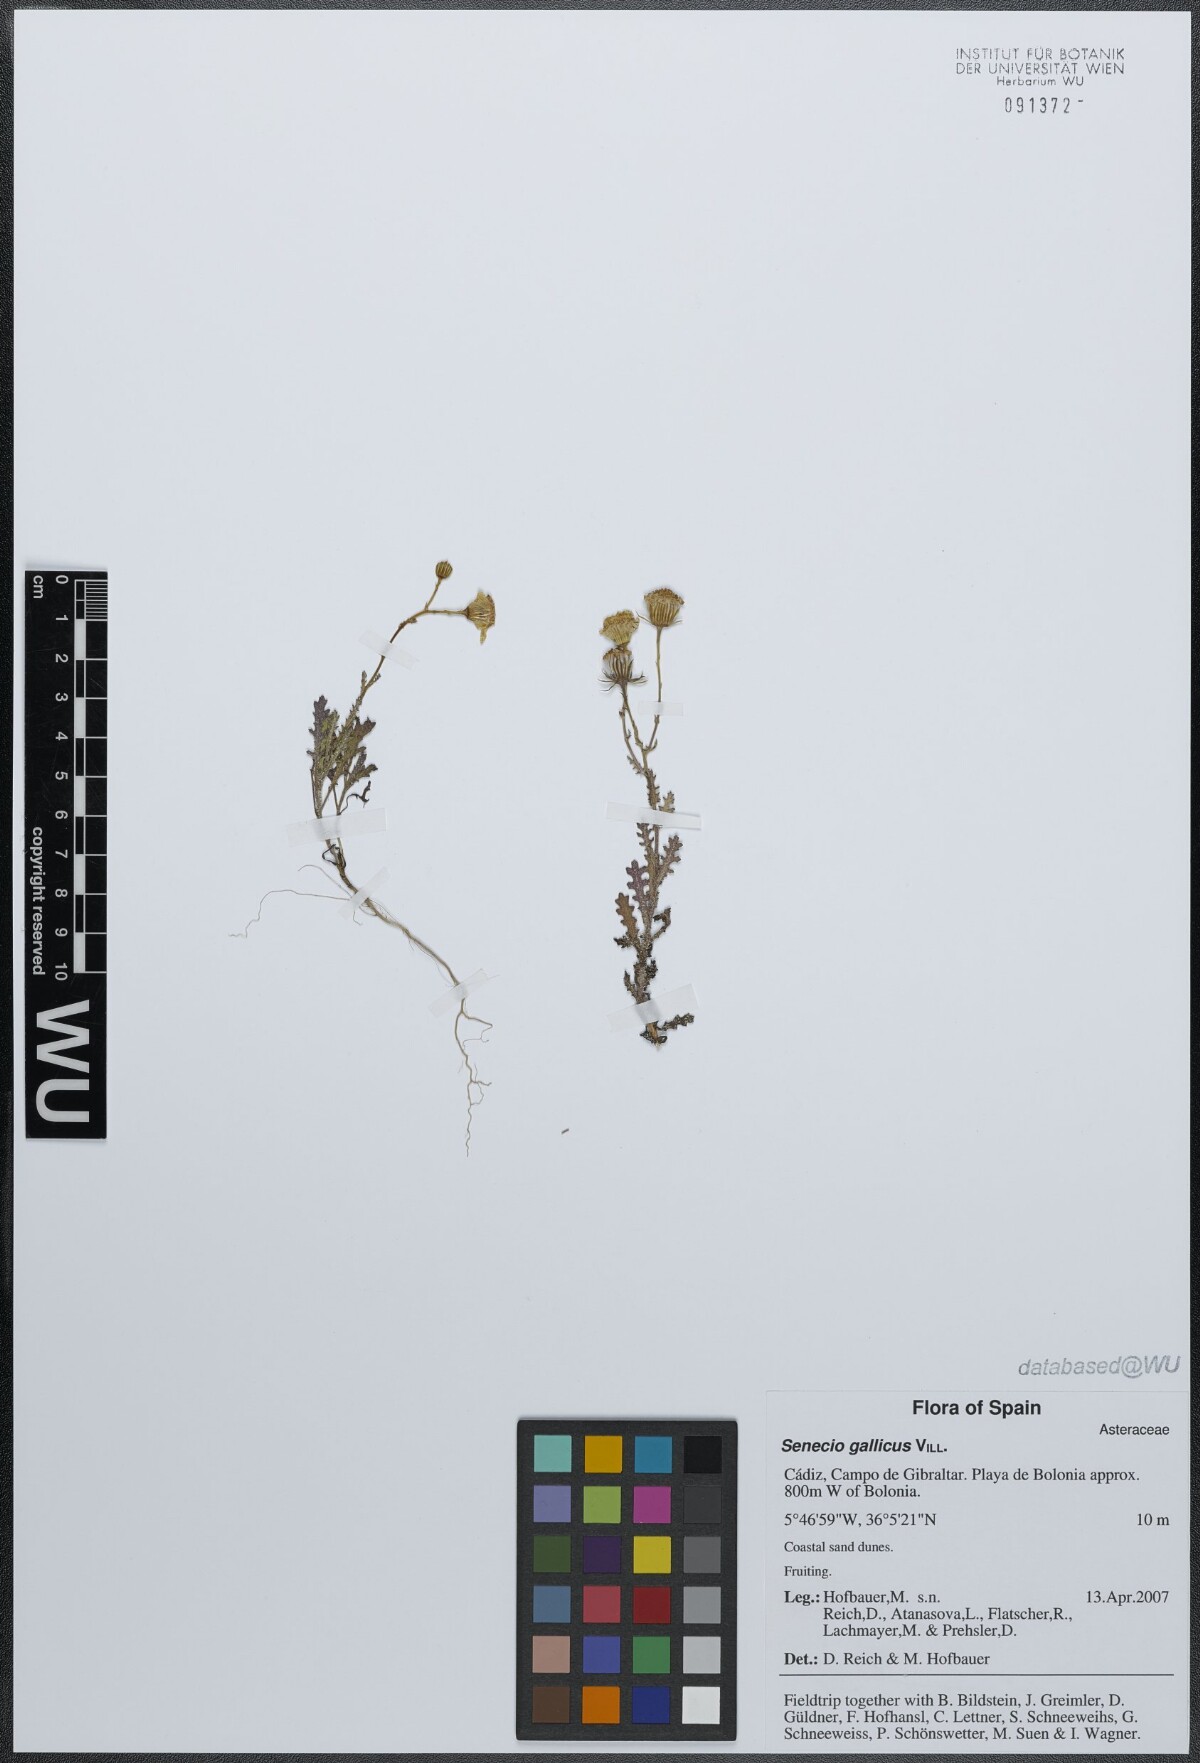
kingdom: Plantae
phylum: Tracheophyta
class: Magnoliopsida
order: Asterales
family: Asteraceae
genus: Senecio
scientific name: Senecio gallicus
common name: French groundsel
